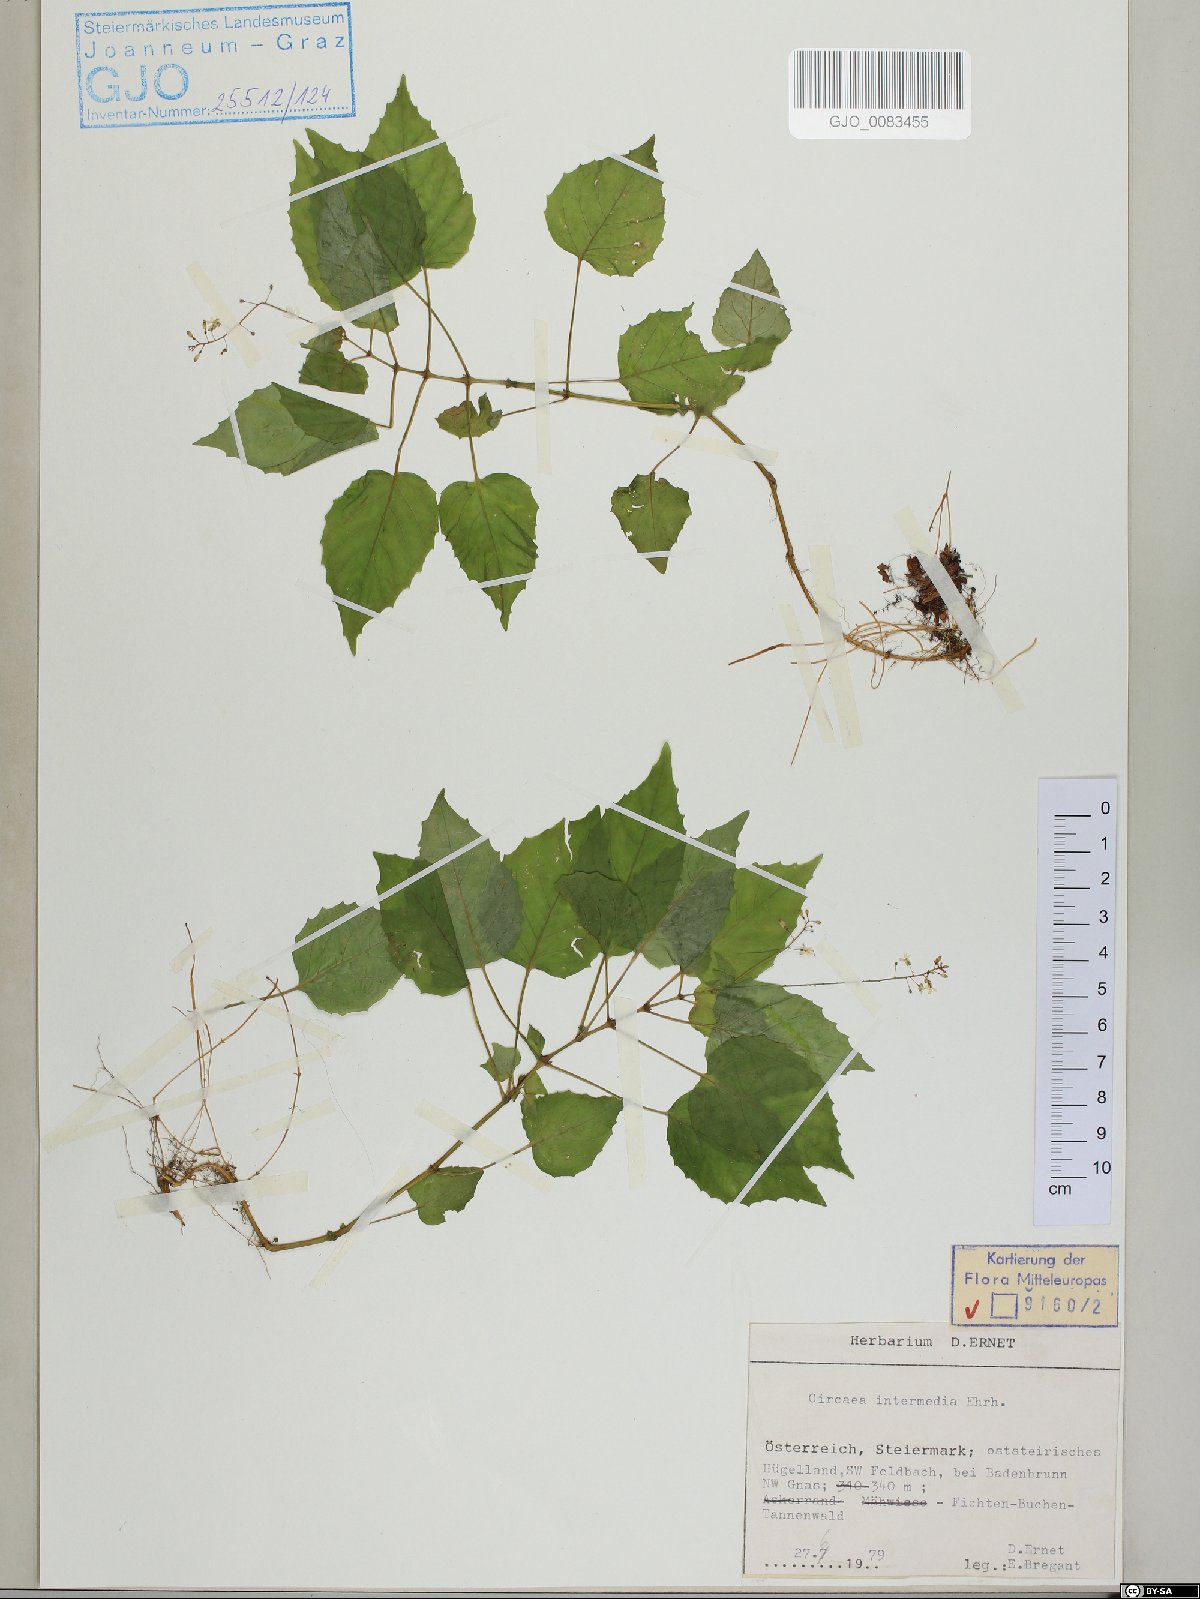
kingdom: Plantae
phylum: Tracheophyta
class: Magnoliopsida
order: Myrtales
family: Onagraceae
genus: Circaea
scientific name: Circaea intermedia
